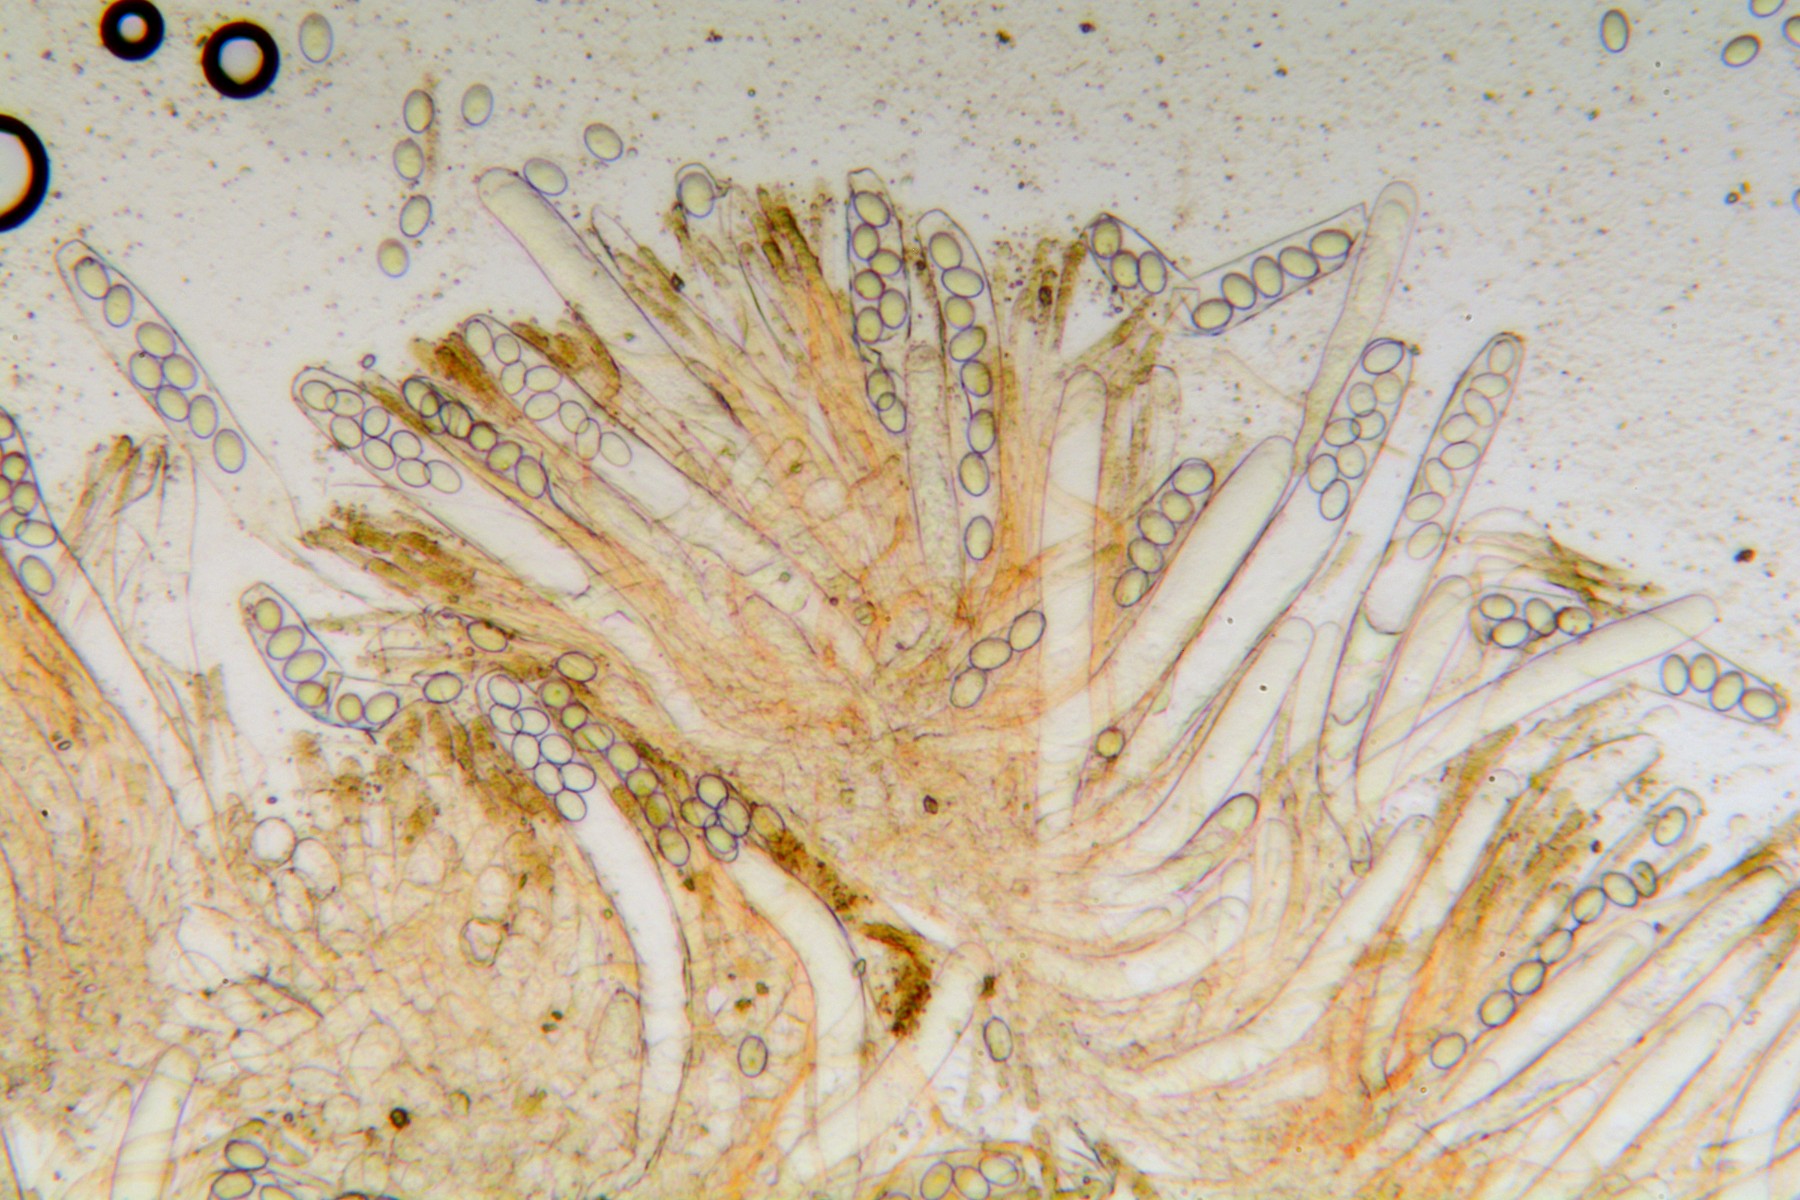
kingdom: Fungi
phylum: Ascomycota
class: Pezizomycetes
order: Pezizales
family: Pezizaceae
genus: Iodophanus
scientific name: Iodophanus carneus
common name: kødfarvet prikbæger
